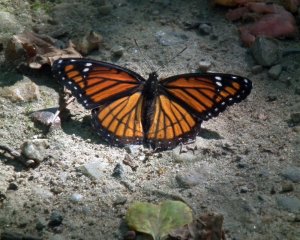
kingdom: Animalia
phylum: Arthropoda
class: Insecta
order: Lepidoptera
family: Nymphalidae
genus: Limenitis
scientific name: Limenitis archippus
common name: Viceroy
